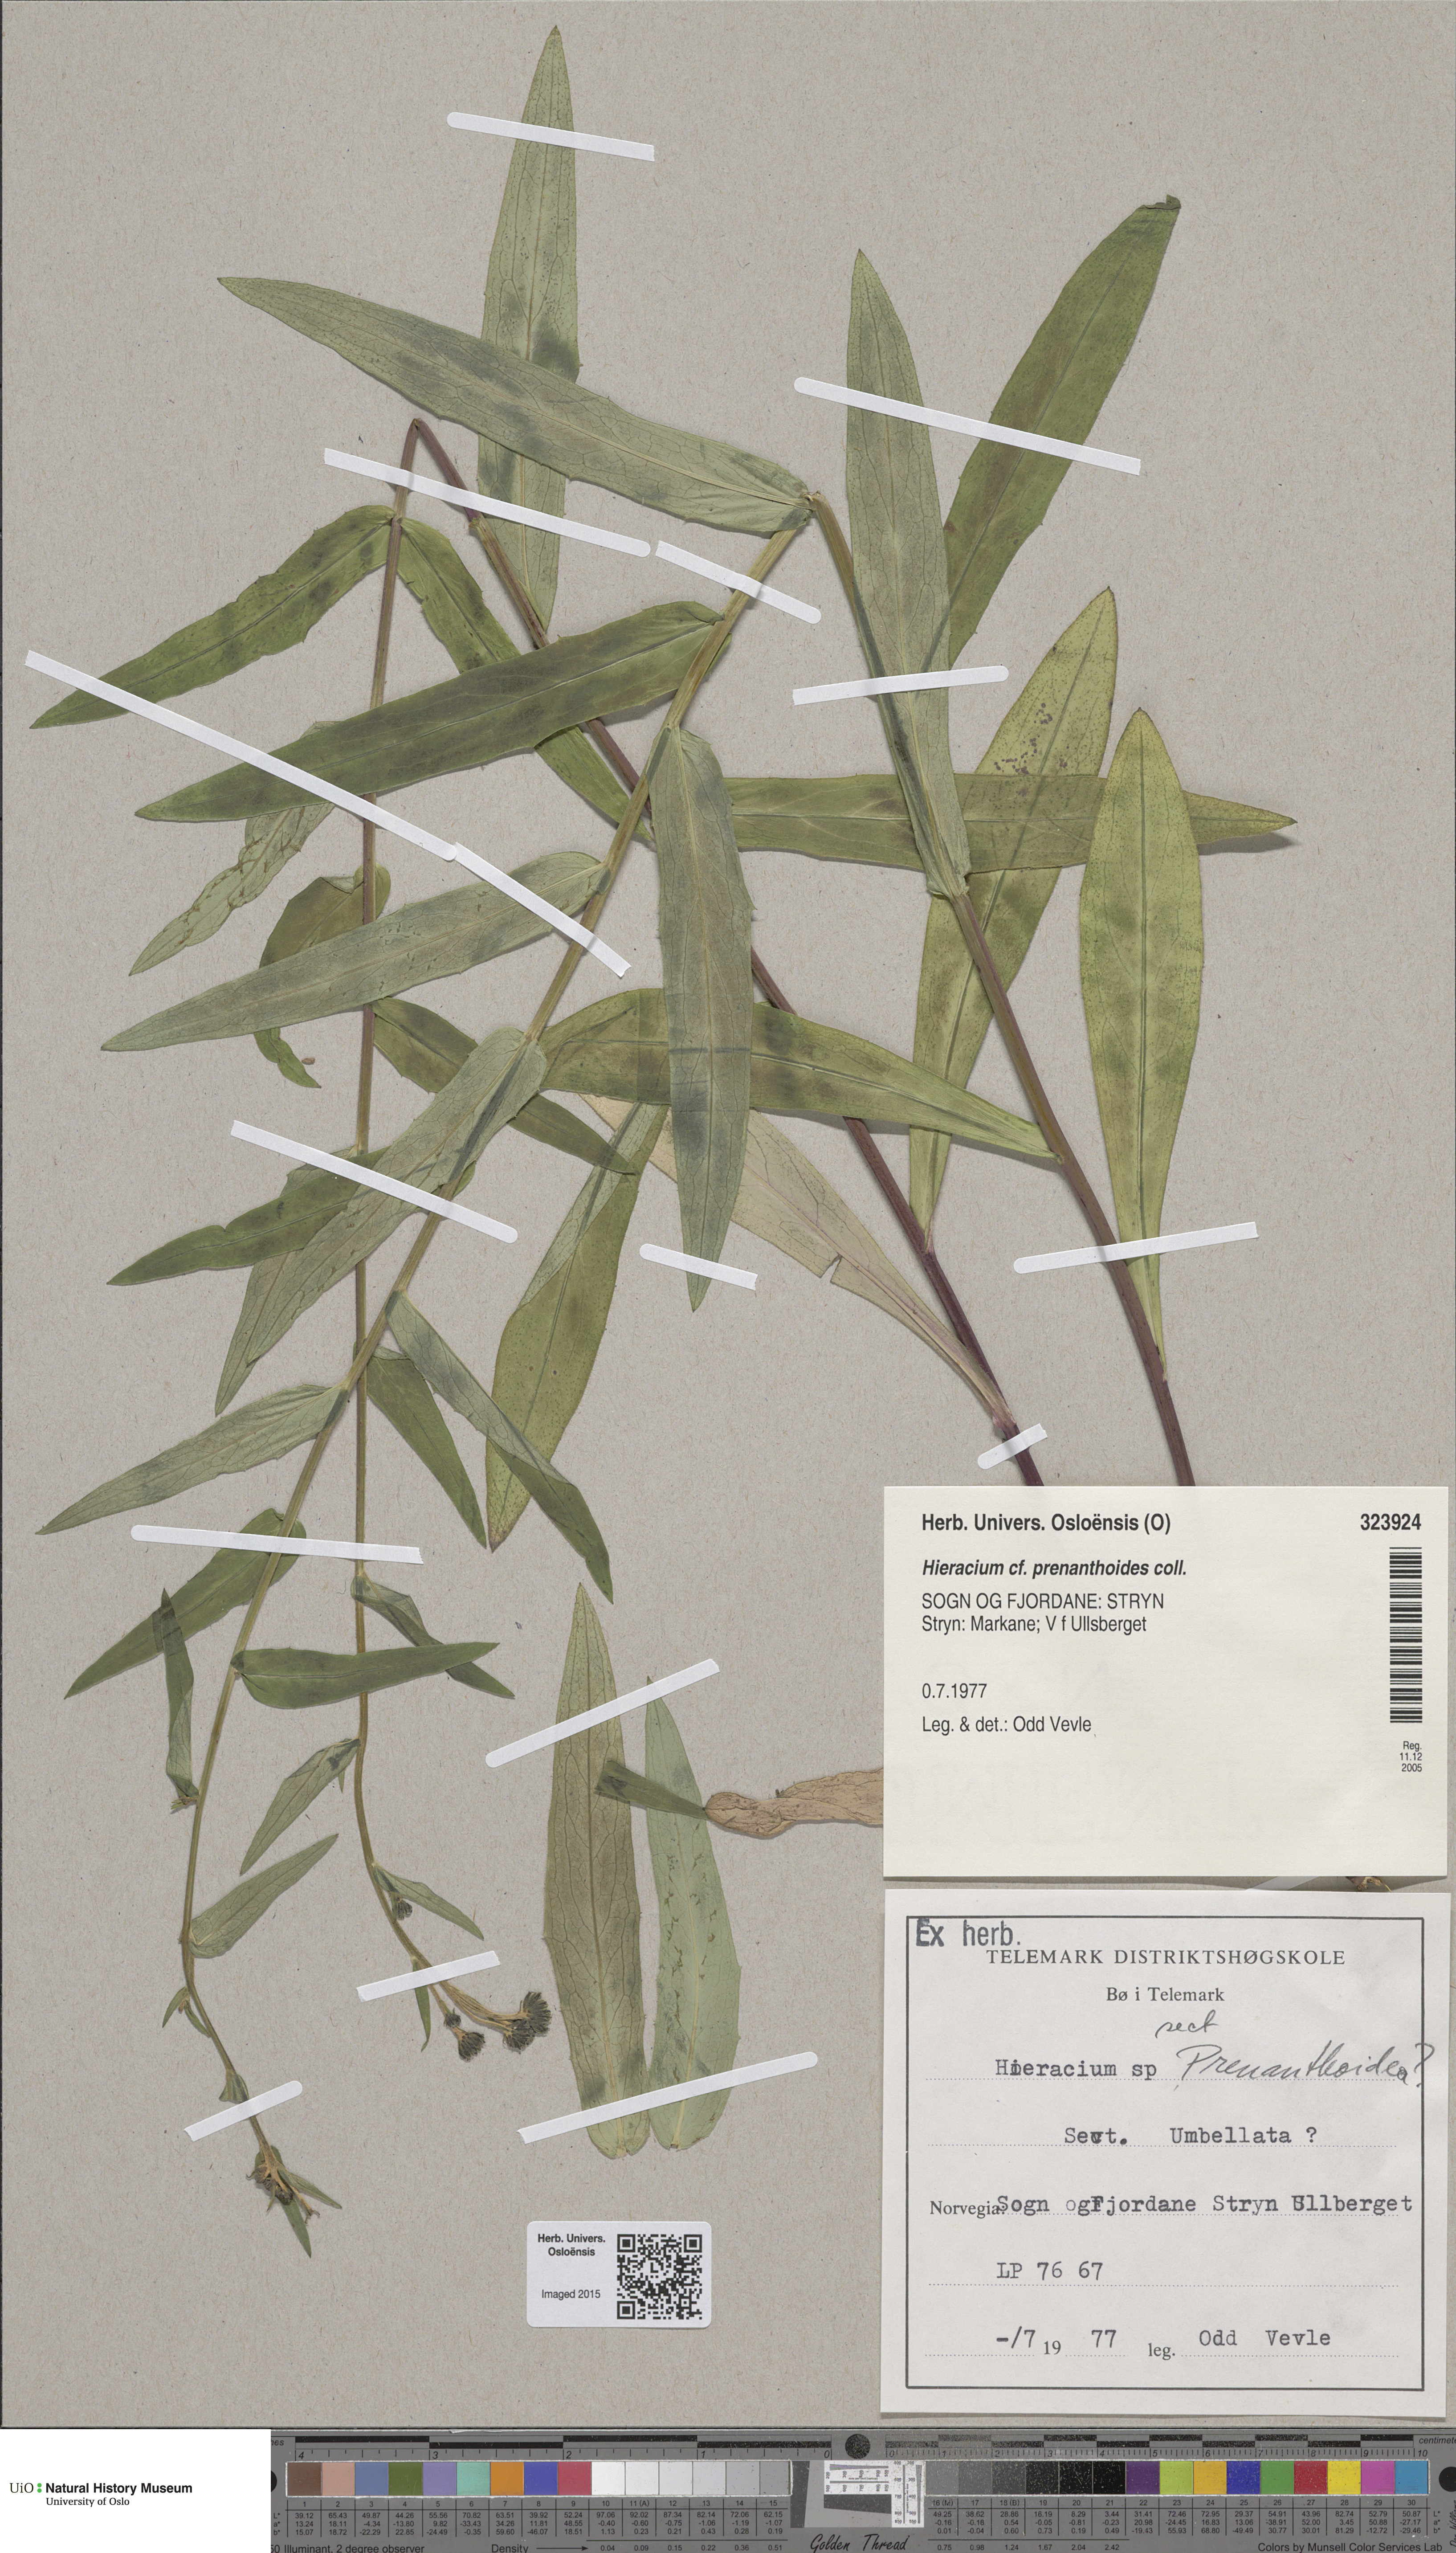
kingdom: Plantae
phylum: Tracheophyta
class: Magnoliopsida
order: Asterales
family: Asteraceae
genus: Hieracium
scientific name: Hieracium prenanthoides
